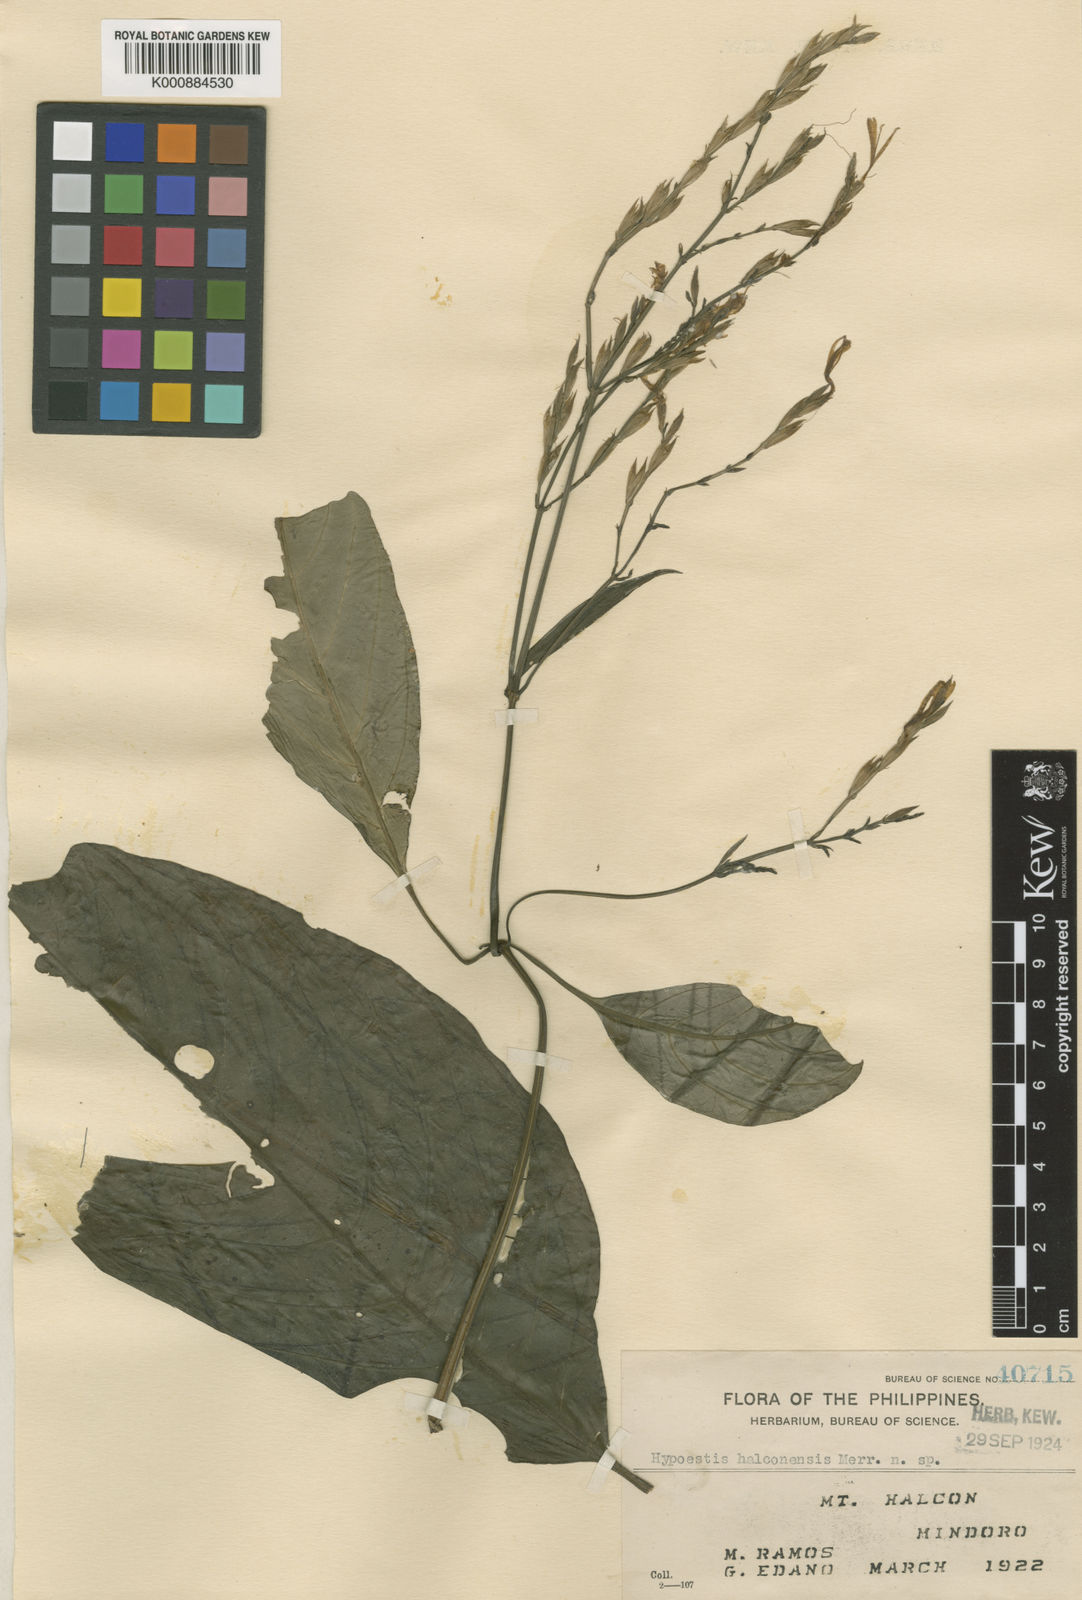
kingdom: Plantae
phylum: Tracheophyta
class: Magnoliopsida
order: Lamiales
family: Acanthaceae
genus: Hypoestes
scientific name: Hypoestes halconensis
